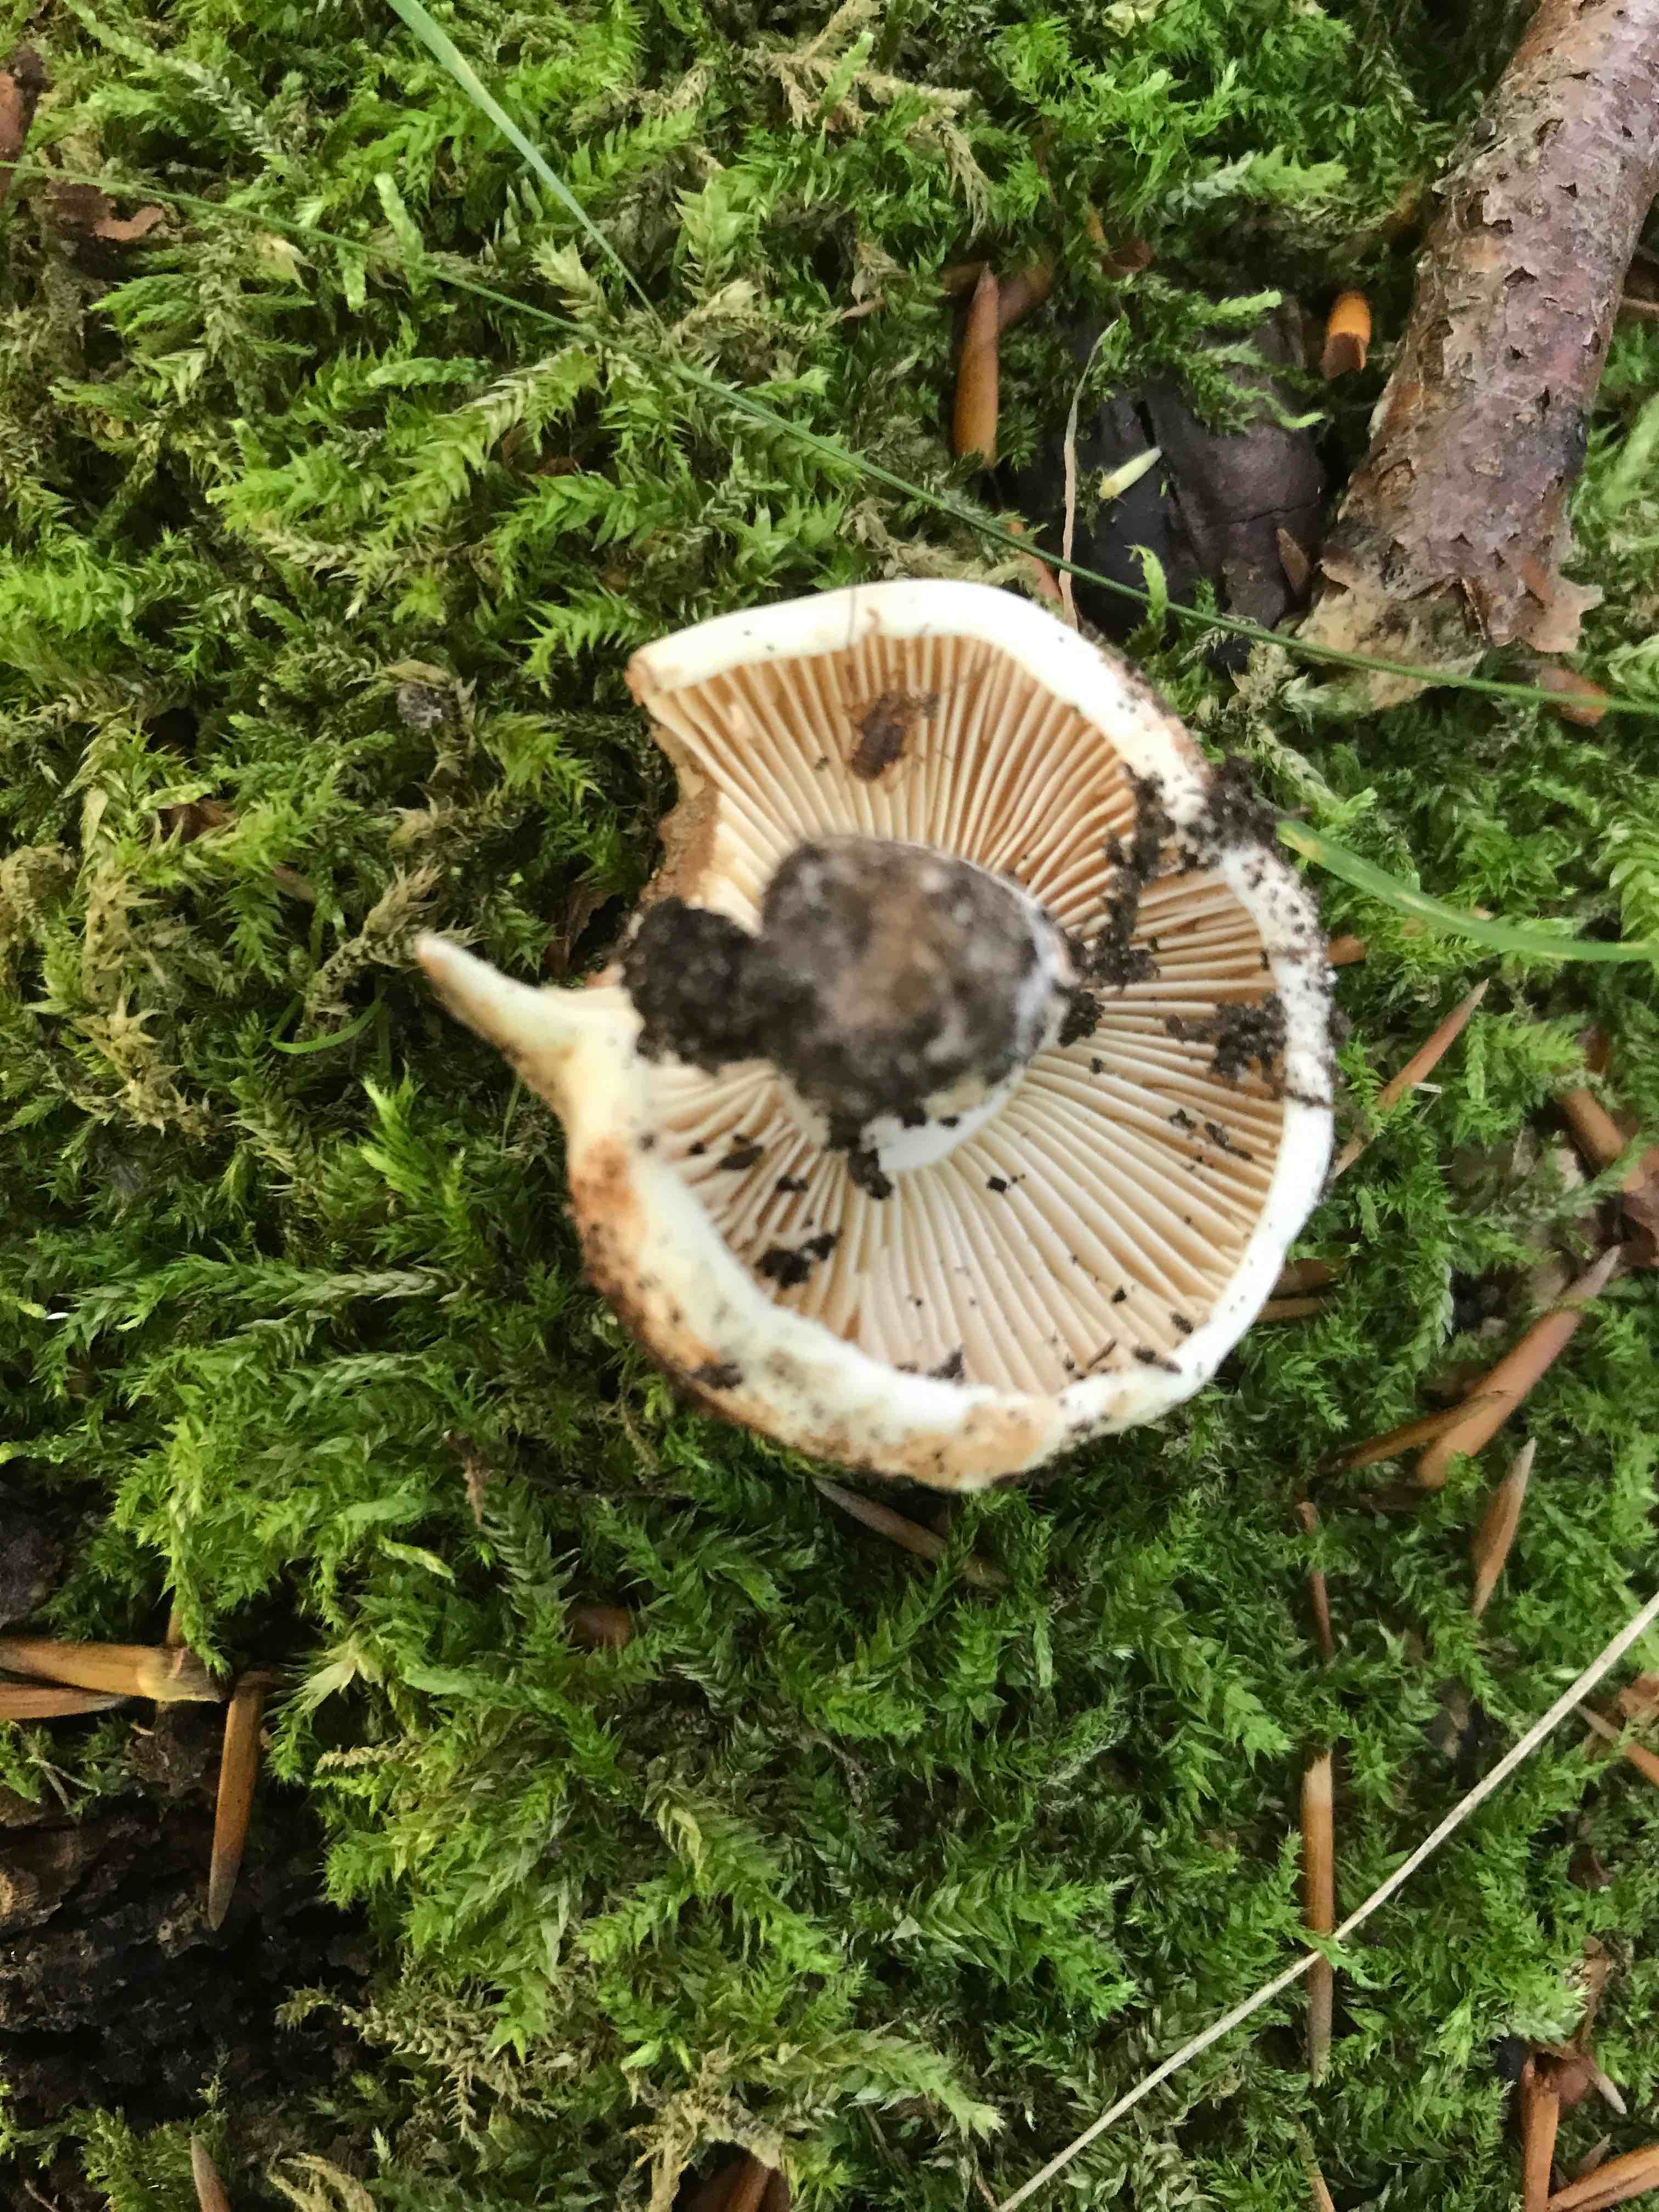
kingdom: Fungi
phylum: Basidiomycota
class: Agaricomycetes
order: Russulales
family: Russulaceae
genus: Russula
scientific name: Russula adusta
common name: sværtende skørhat
